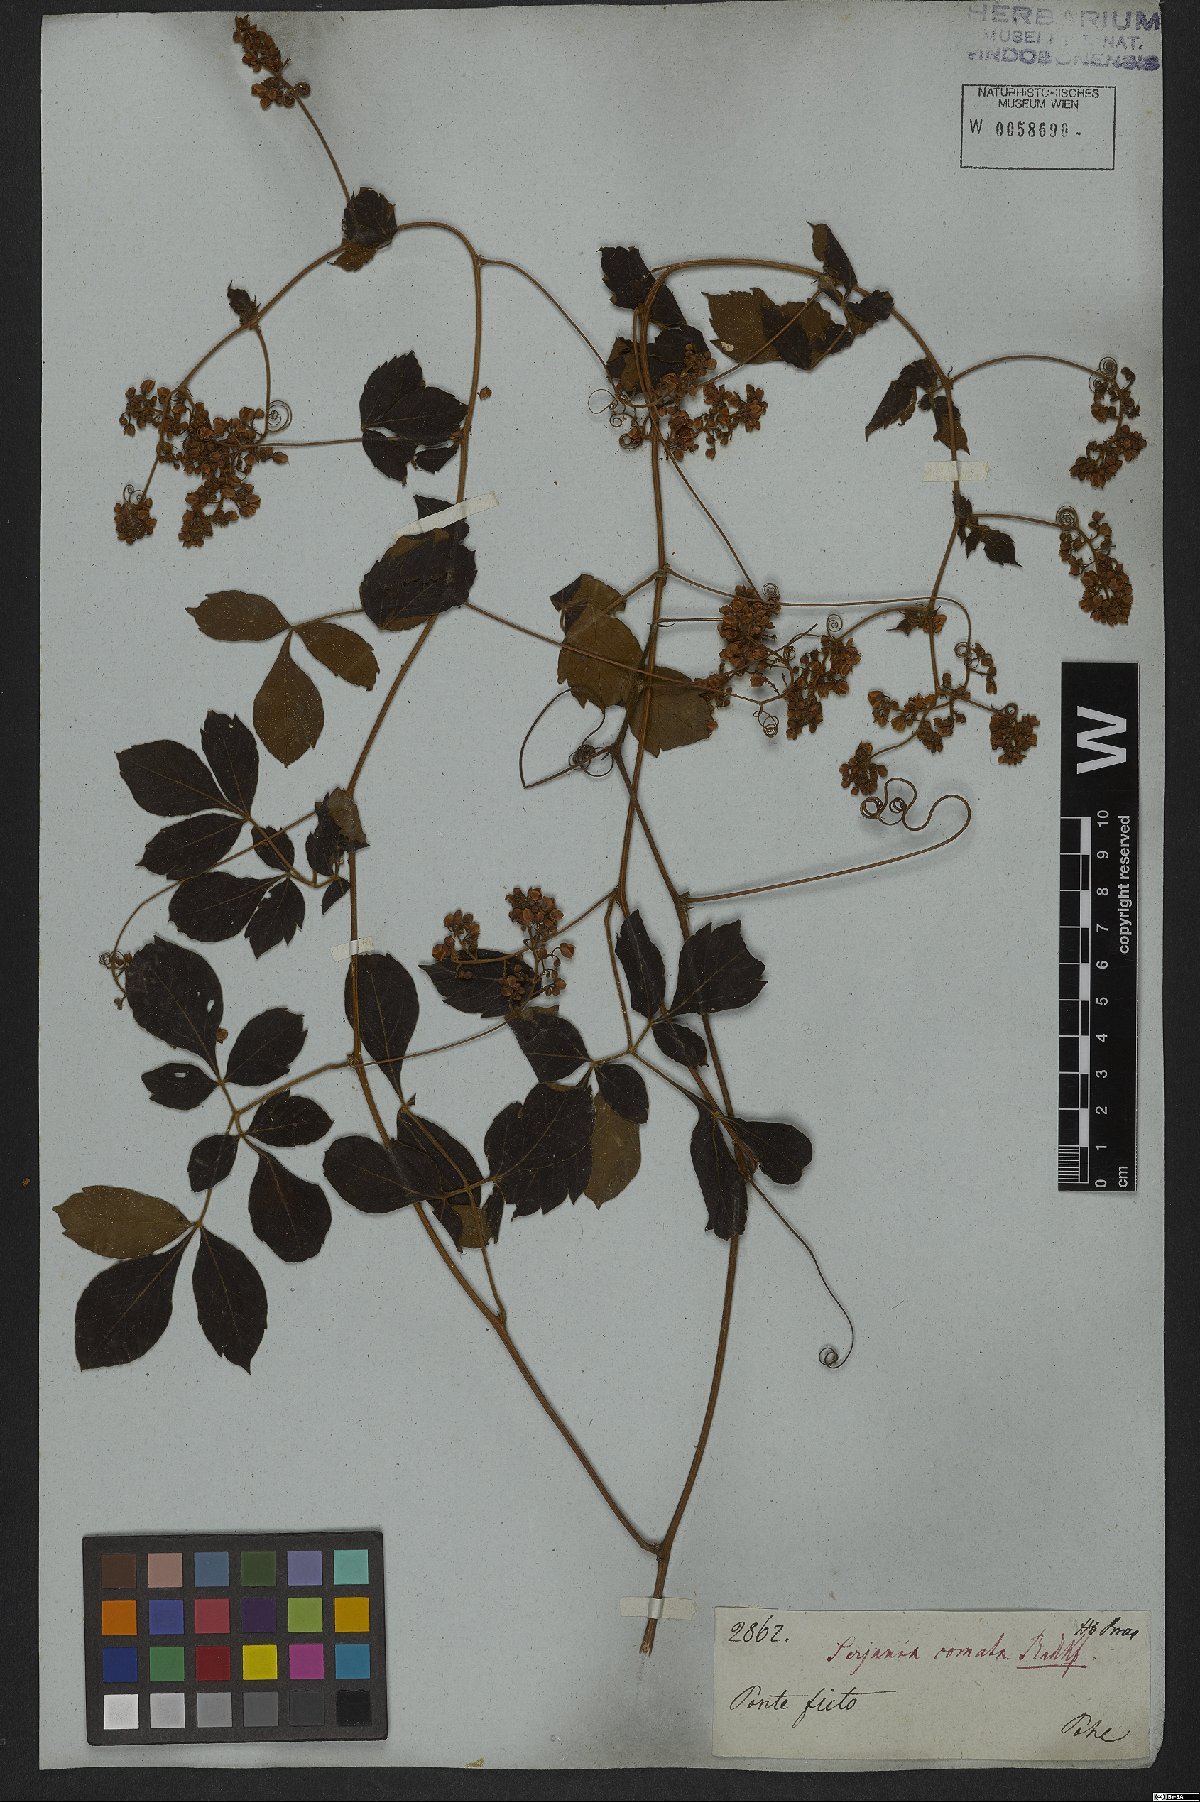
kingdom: Plantae
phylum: Tracheophyta
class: Magnoliopsida
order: Sapindales
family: Sapindaceae
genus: Serjania
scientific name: Serjania comata
